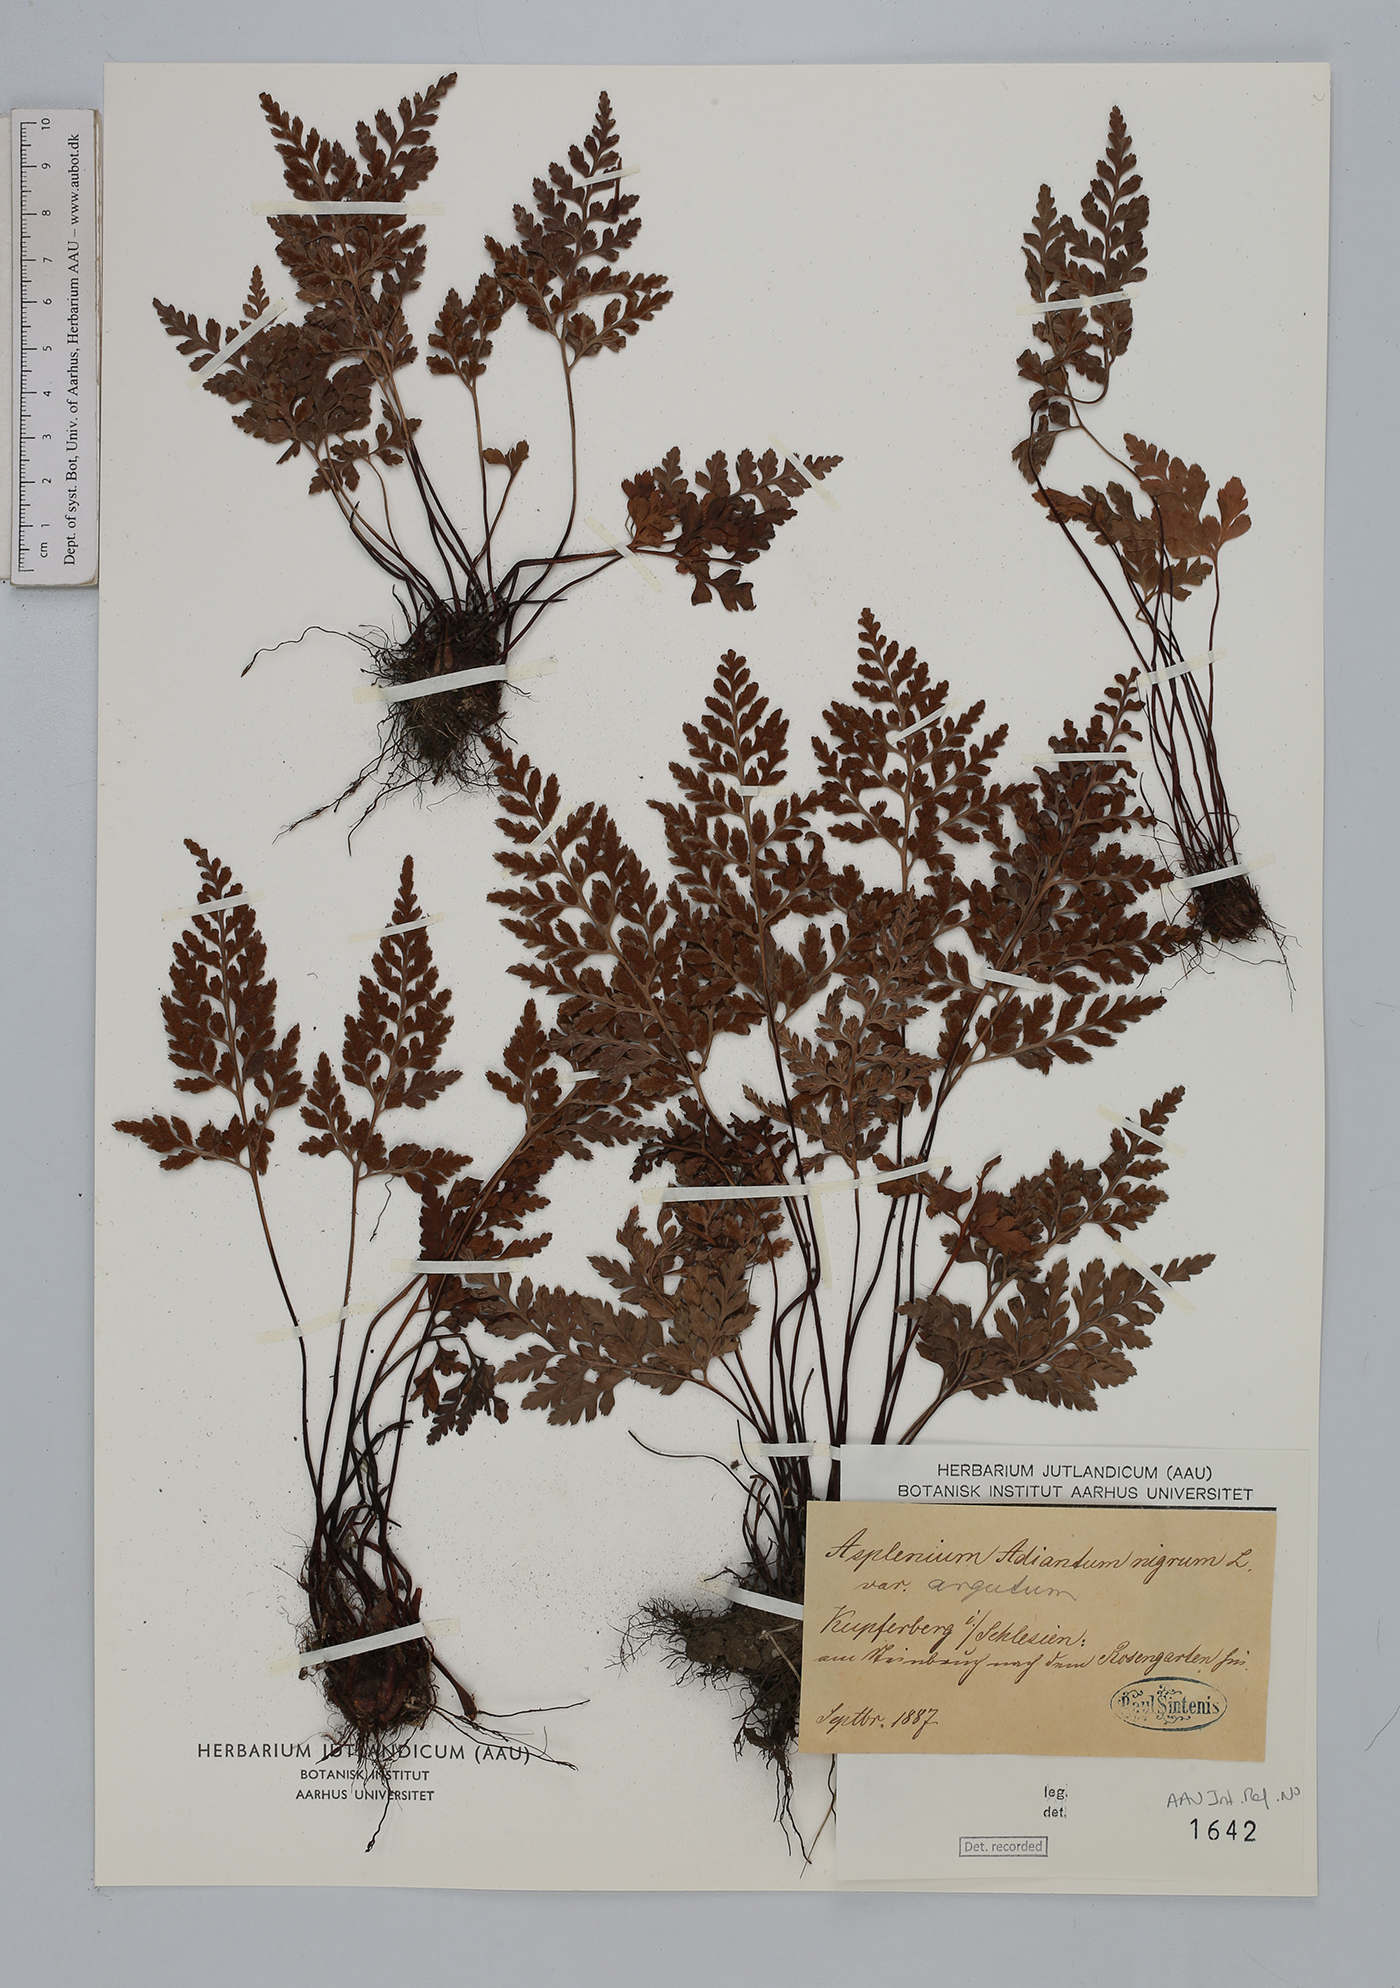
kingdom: Plantae
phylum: Tracheophyta
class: Polypodiopsida
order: Polypodiales
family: Aspleniaceae
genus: Asplenium
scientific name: Asplenium adiantum-nigrum
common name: Black spleenwort
